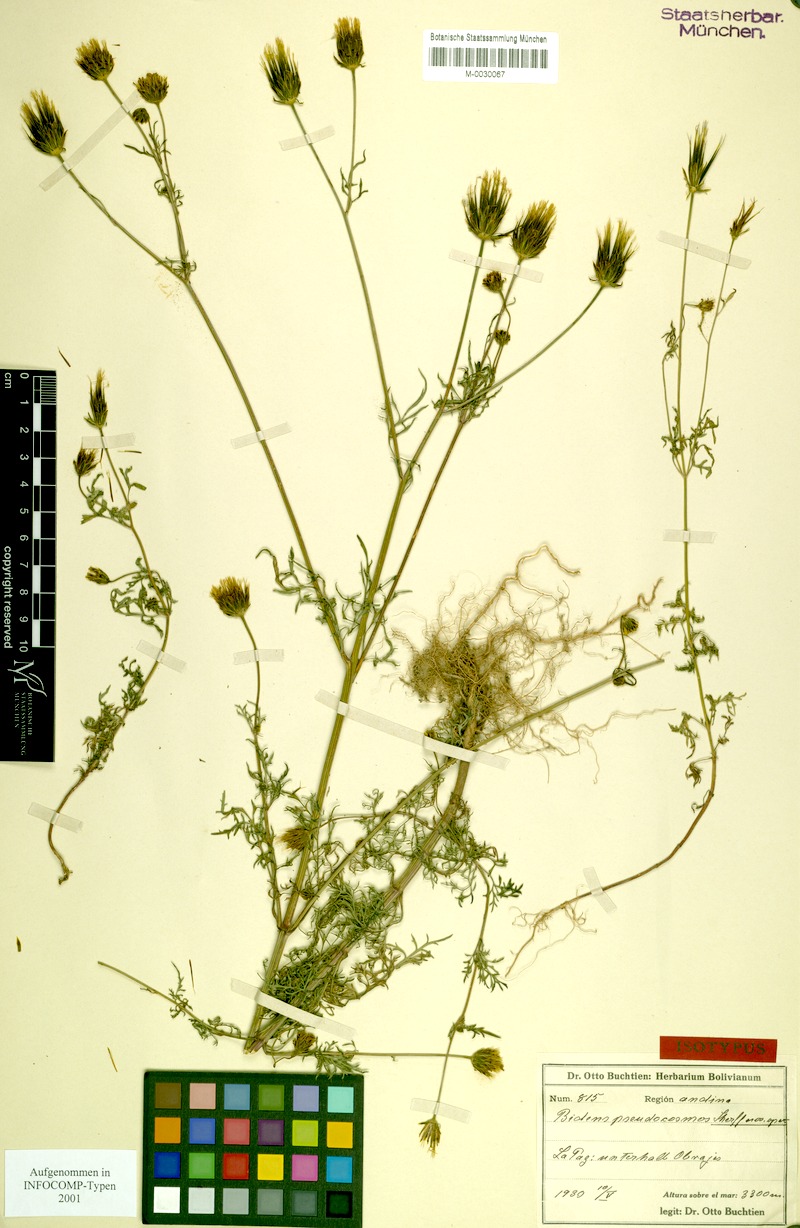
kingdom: Plantae
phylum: Tracheophyta
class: Magnoliopsida
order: Asterales
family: Asteraceae
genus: Bidens
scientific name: Bidens pseudocosmos
